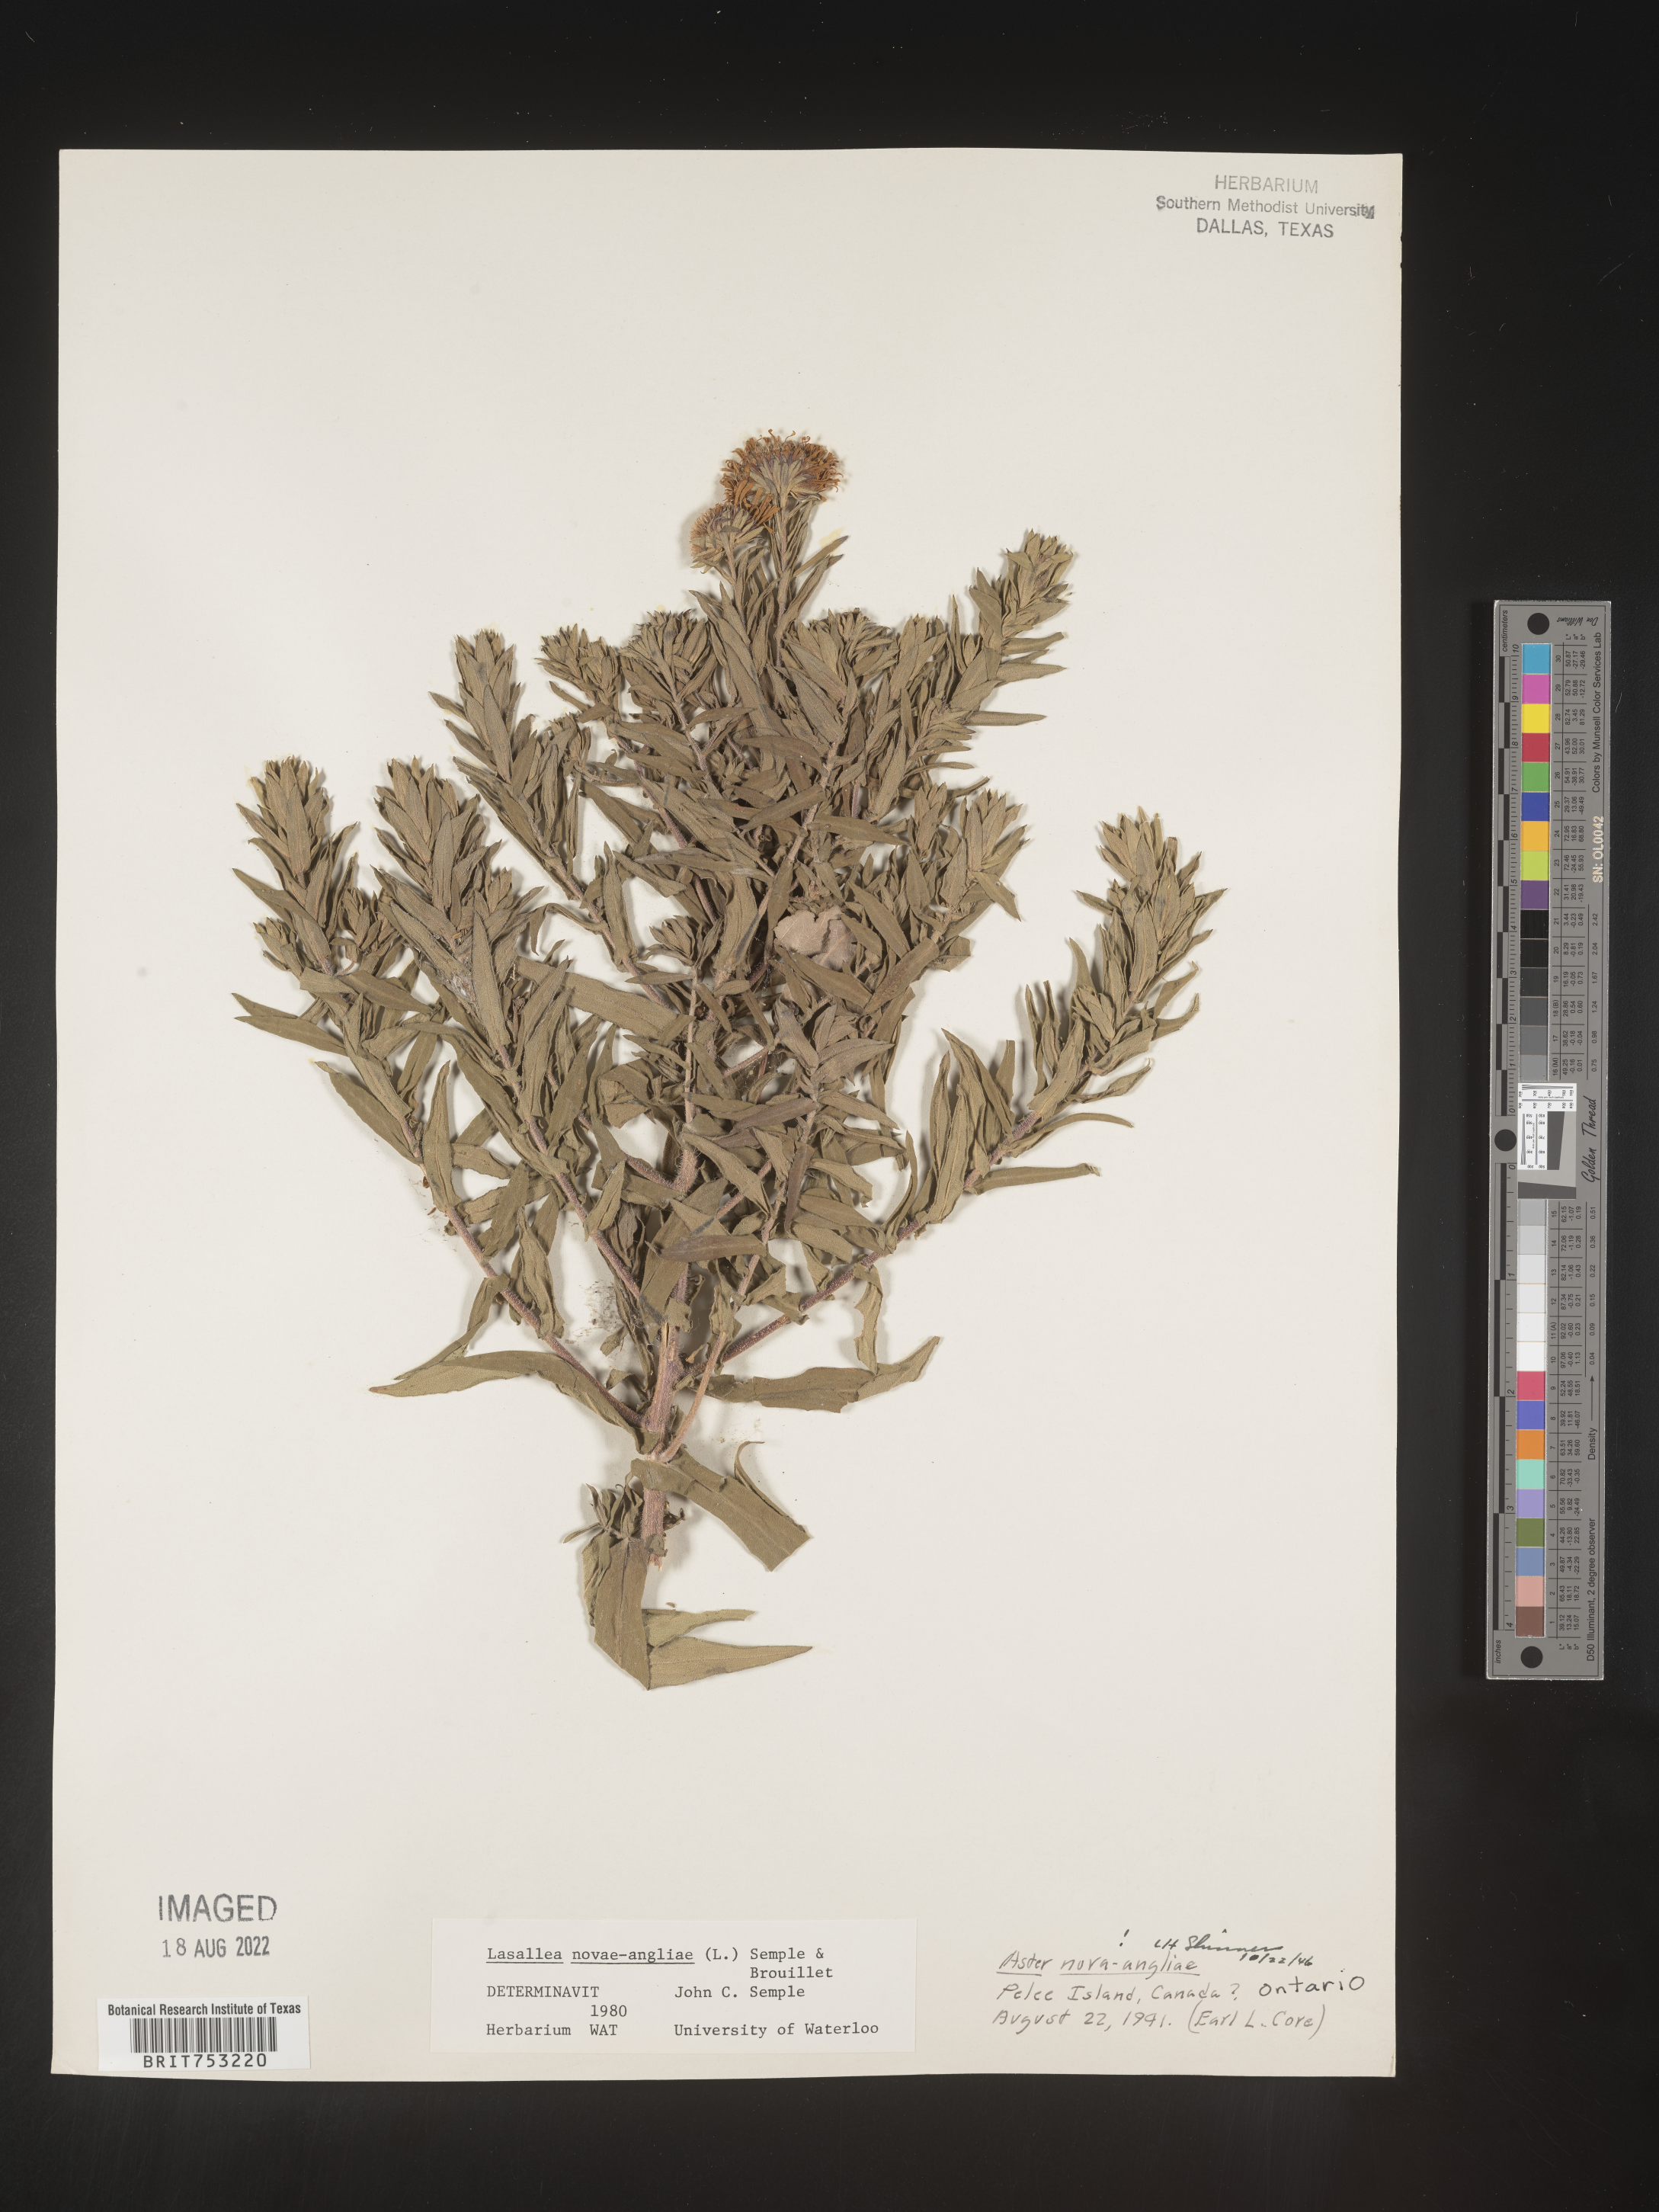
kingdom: Plantae
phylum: Tracheophyta
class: Magnoliopsida
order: Asterales
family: Asteraceae
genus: Symphyotrichum
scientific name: Symphyotrichum novi-belgii
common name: Michaelmas daisy
